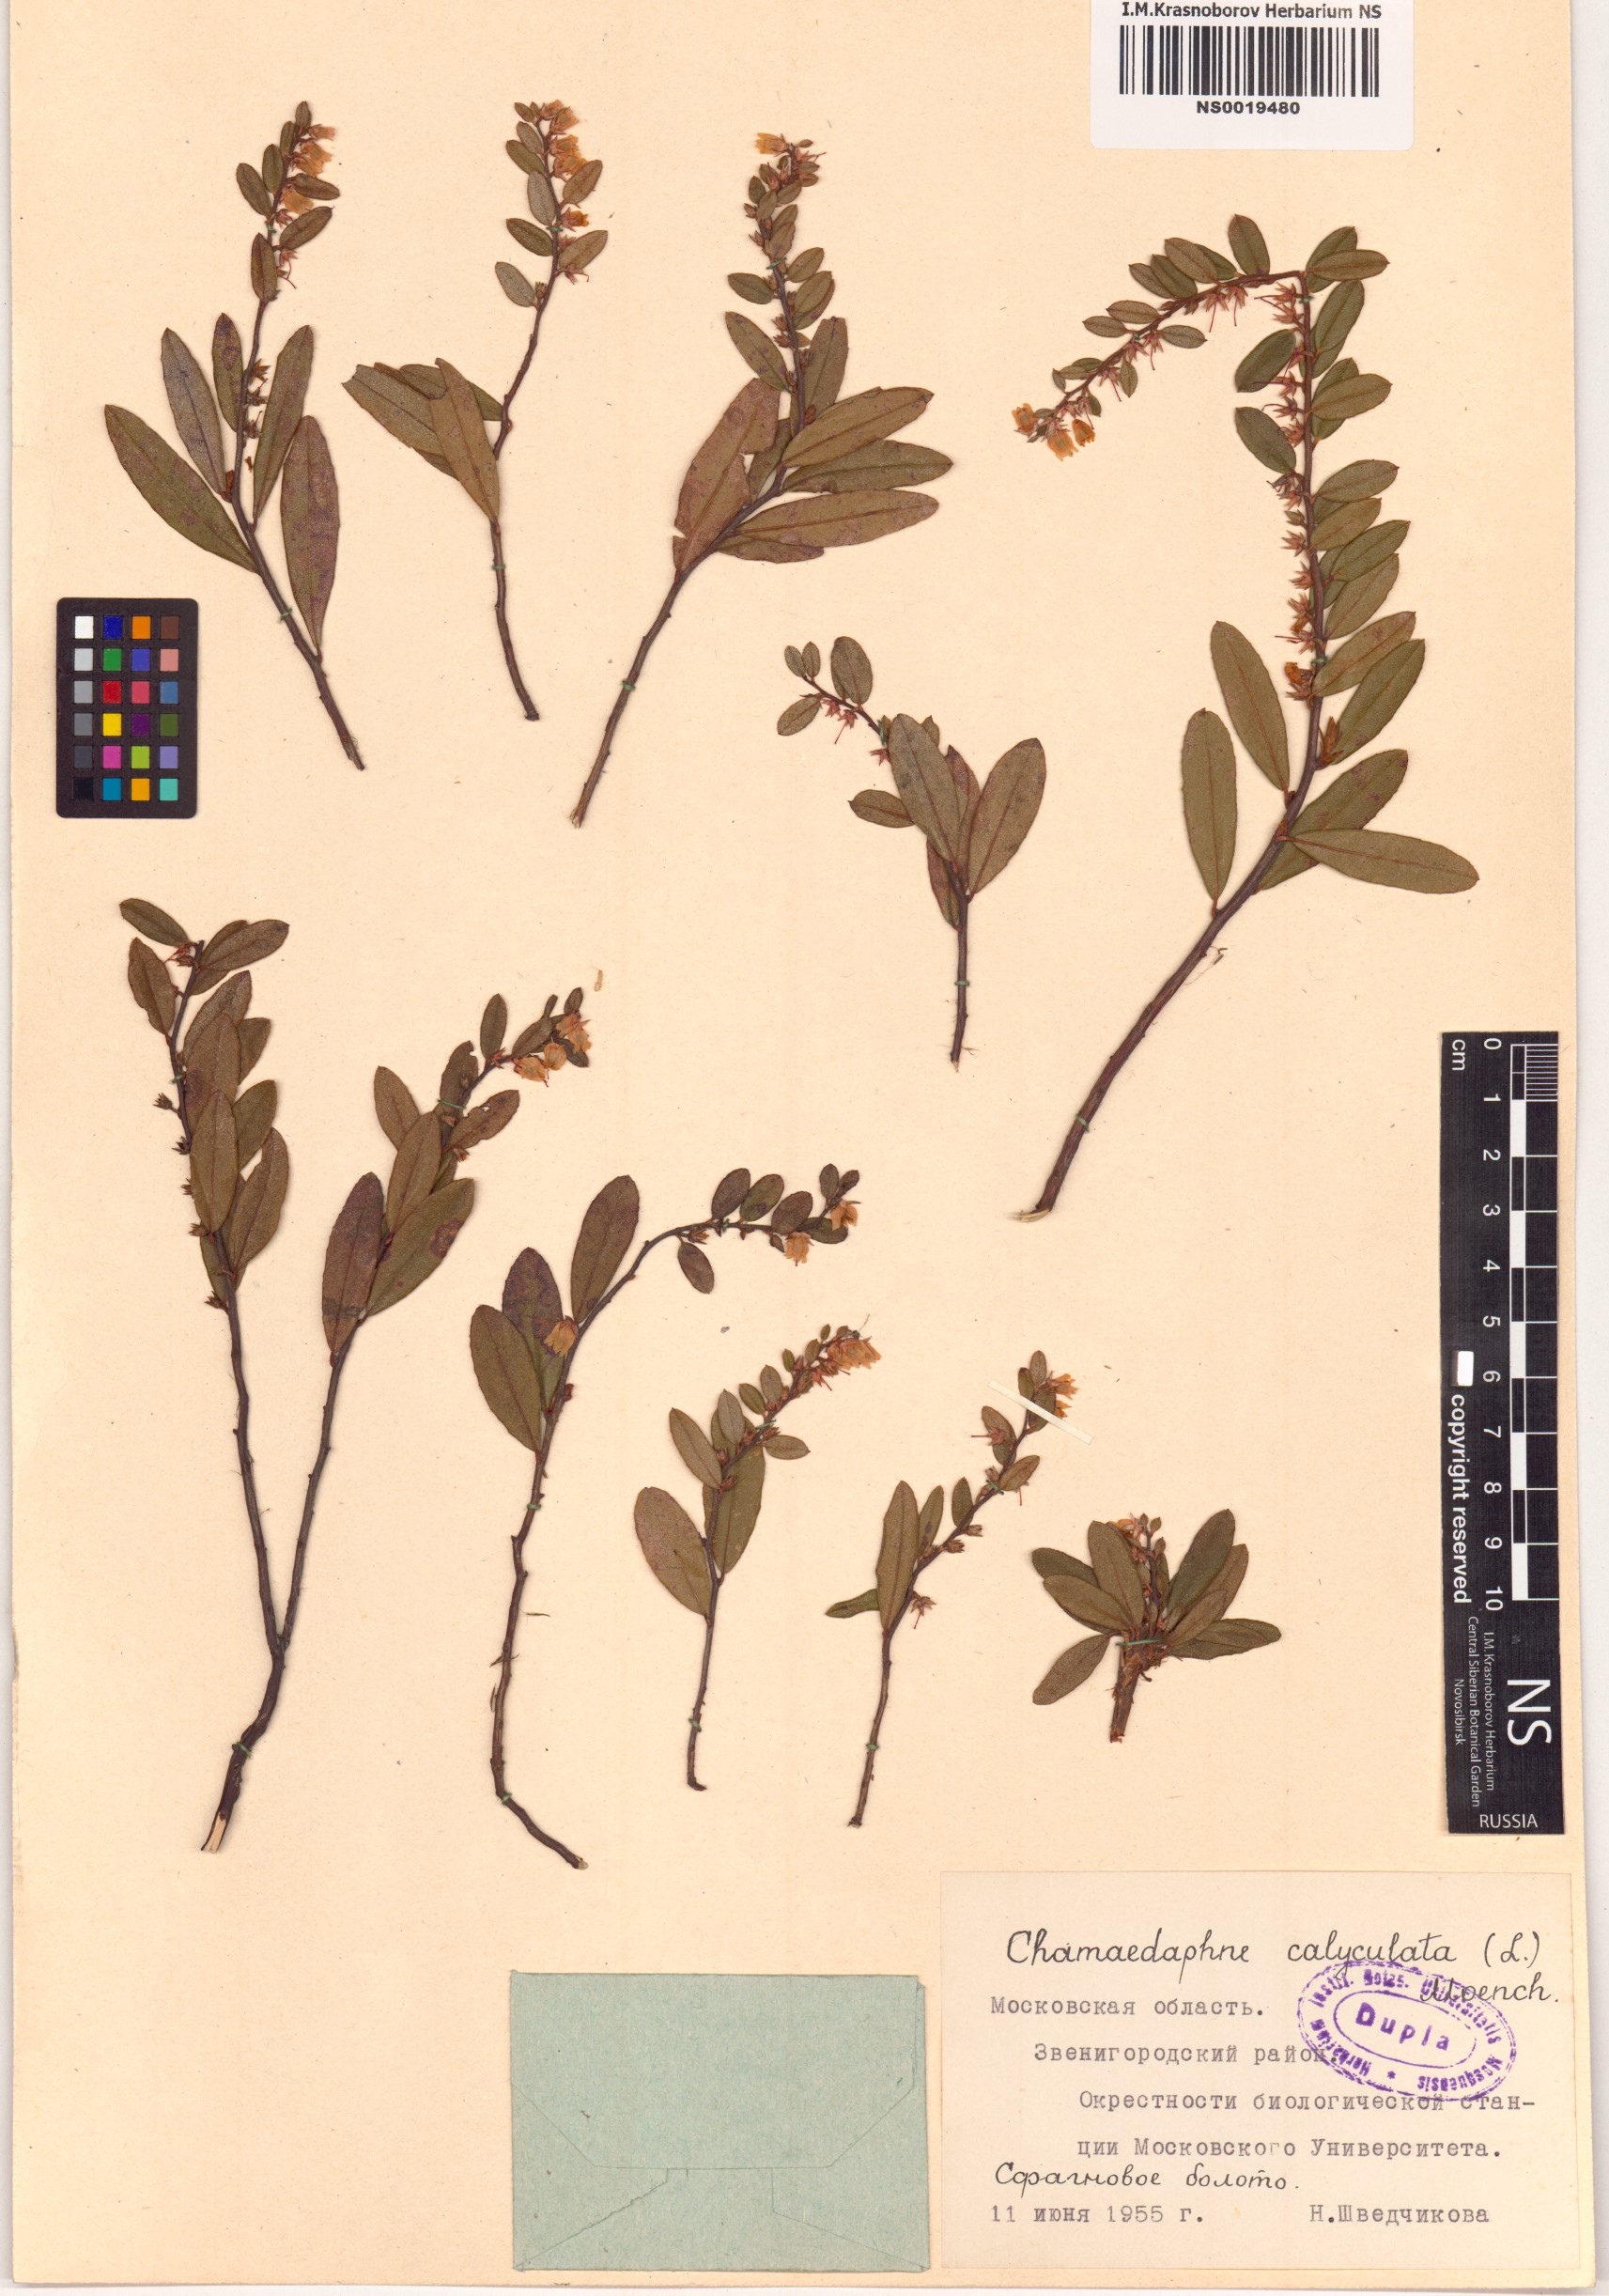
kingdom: Plantae
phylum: Tracheophyta
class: Magnoliopsida
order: Ericales
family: Ericaceae
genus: Chamaedaphne
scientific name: Chamaedaphne calyculata
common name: Leatherleaf
